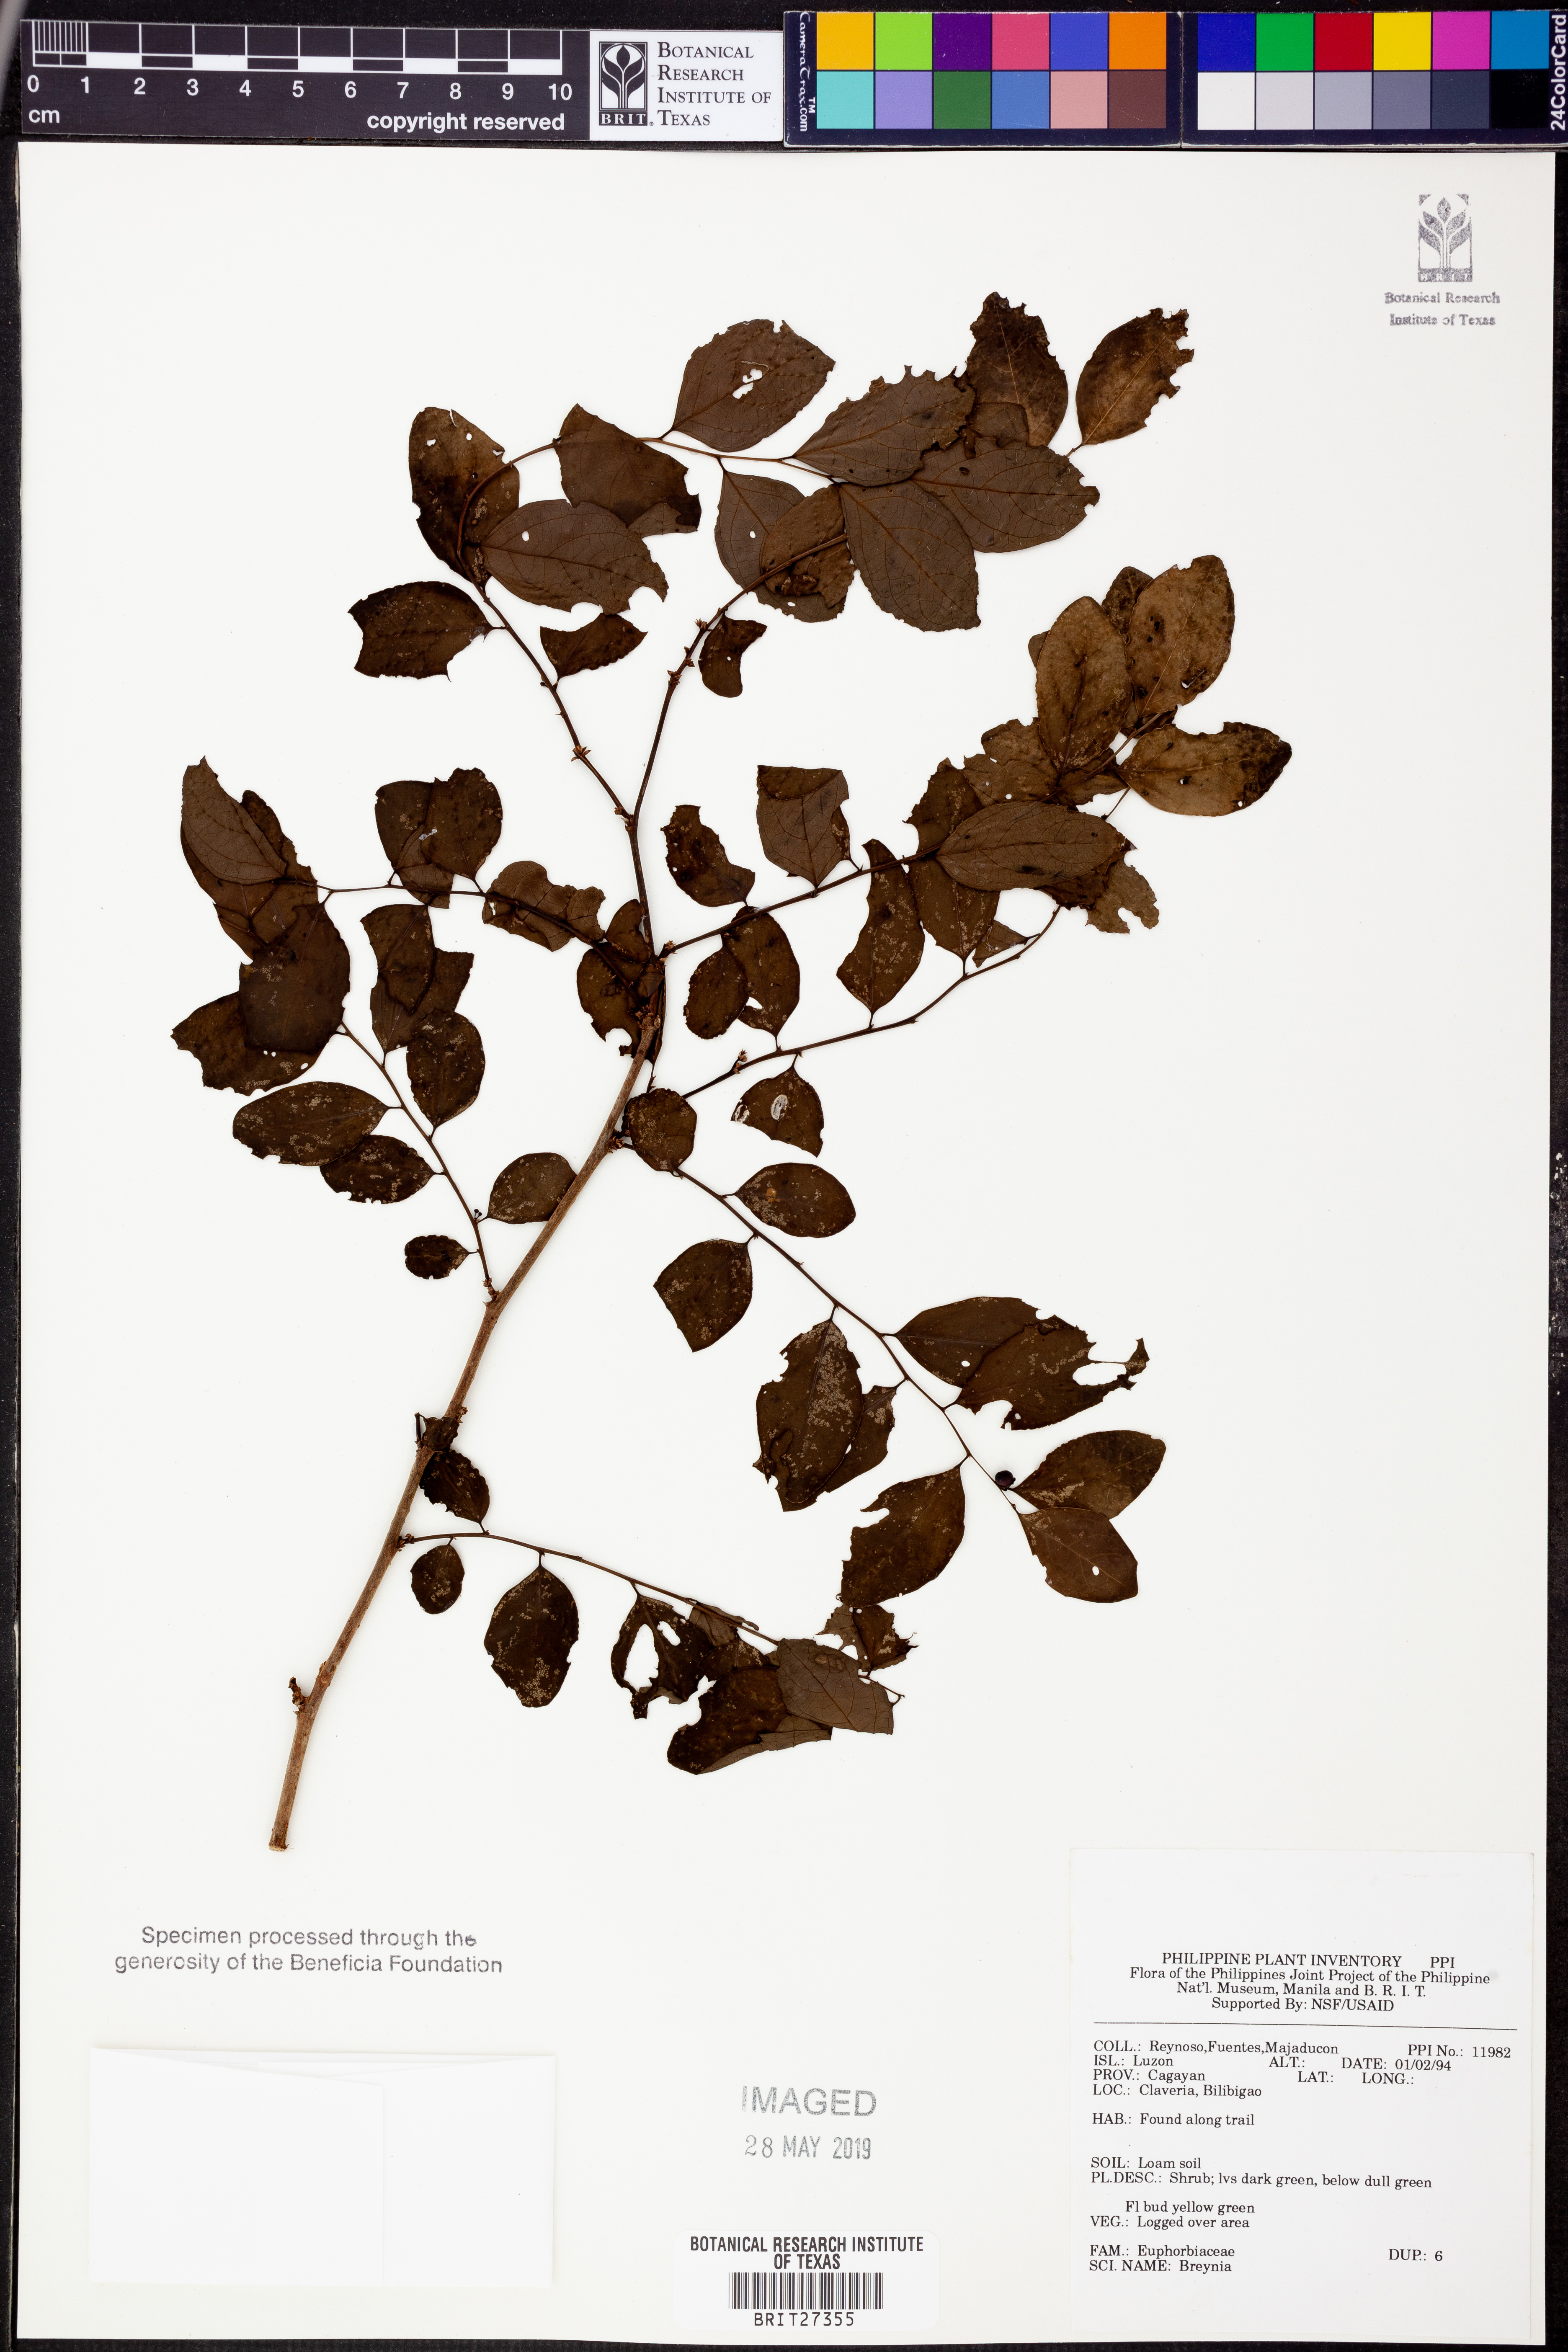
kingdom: Plantae
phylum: Tracheophyta
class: Magnoliopsida
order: Malpighiales
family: Phyllanthaceae
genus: Breynia
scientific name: Breynia
